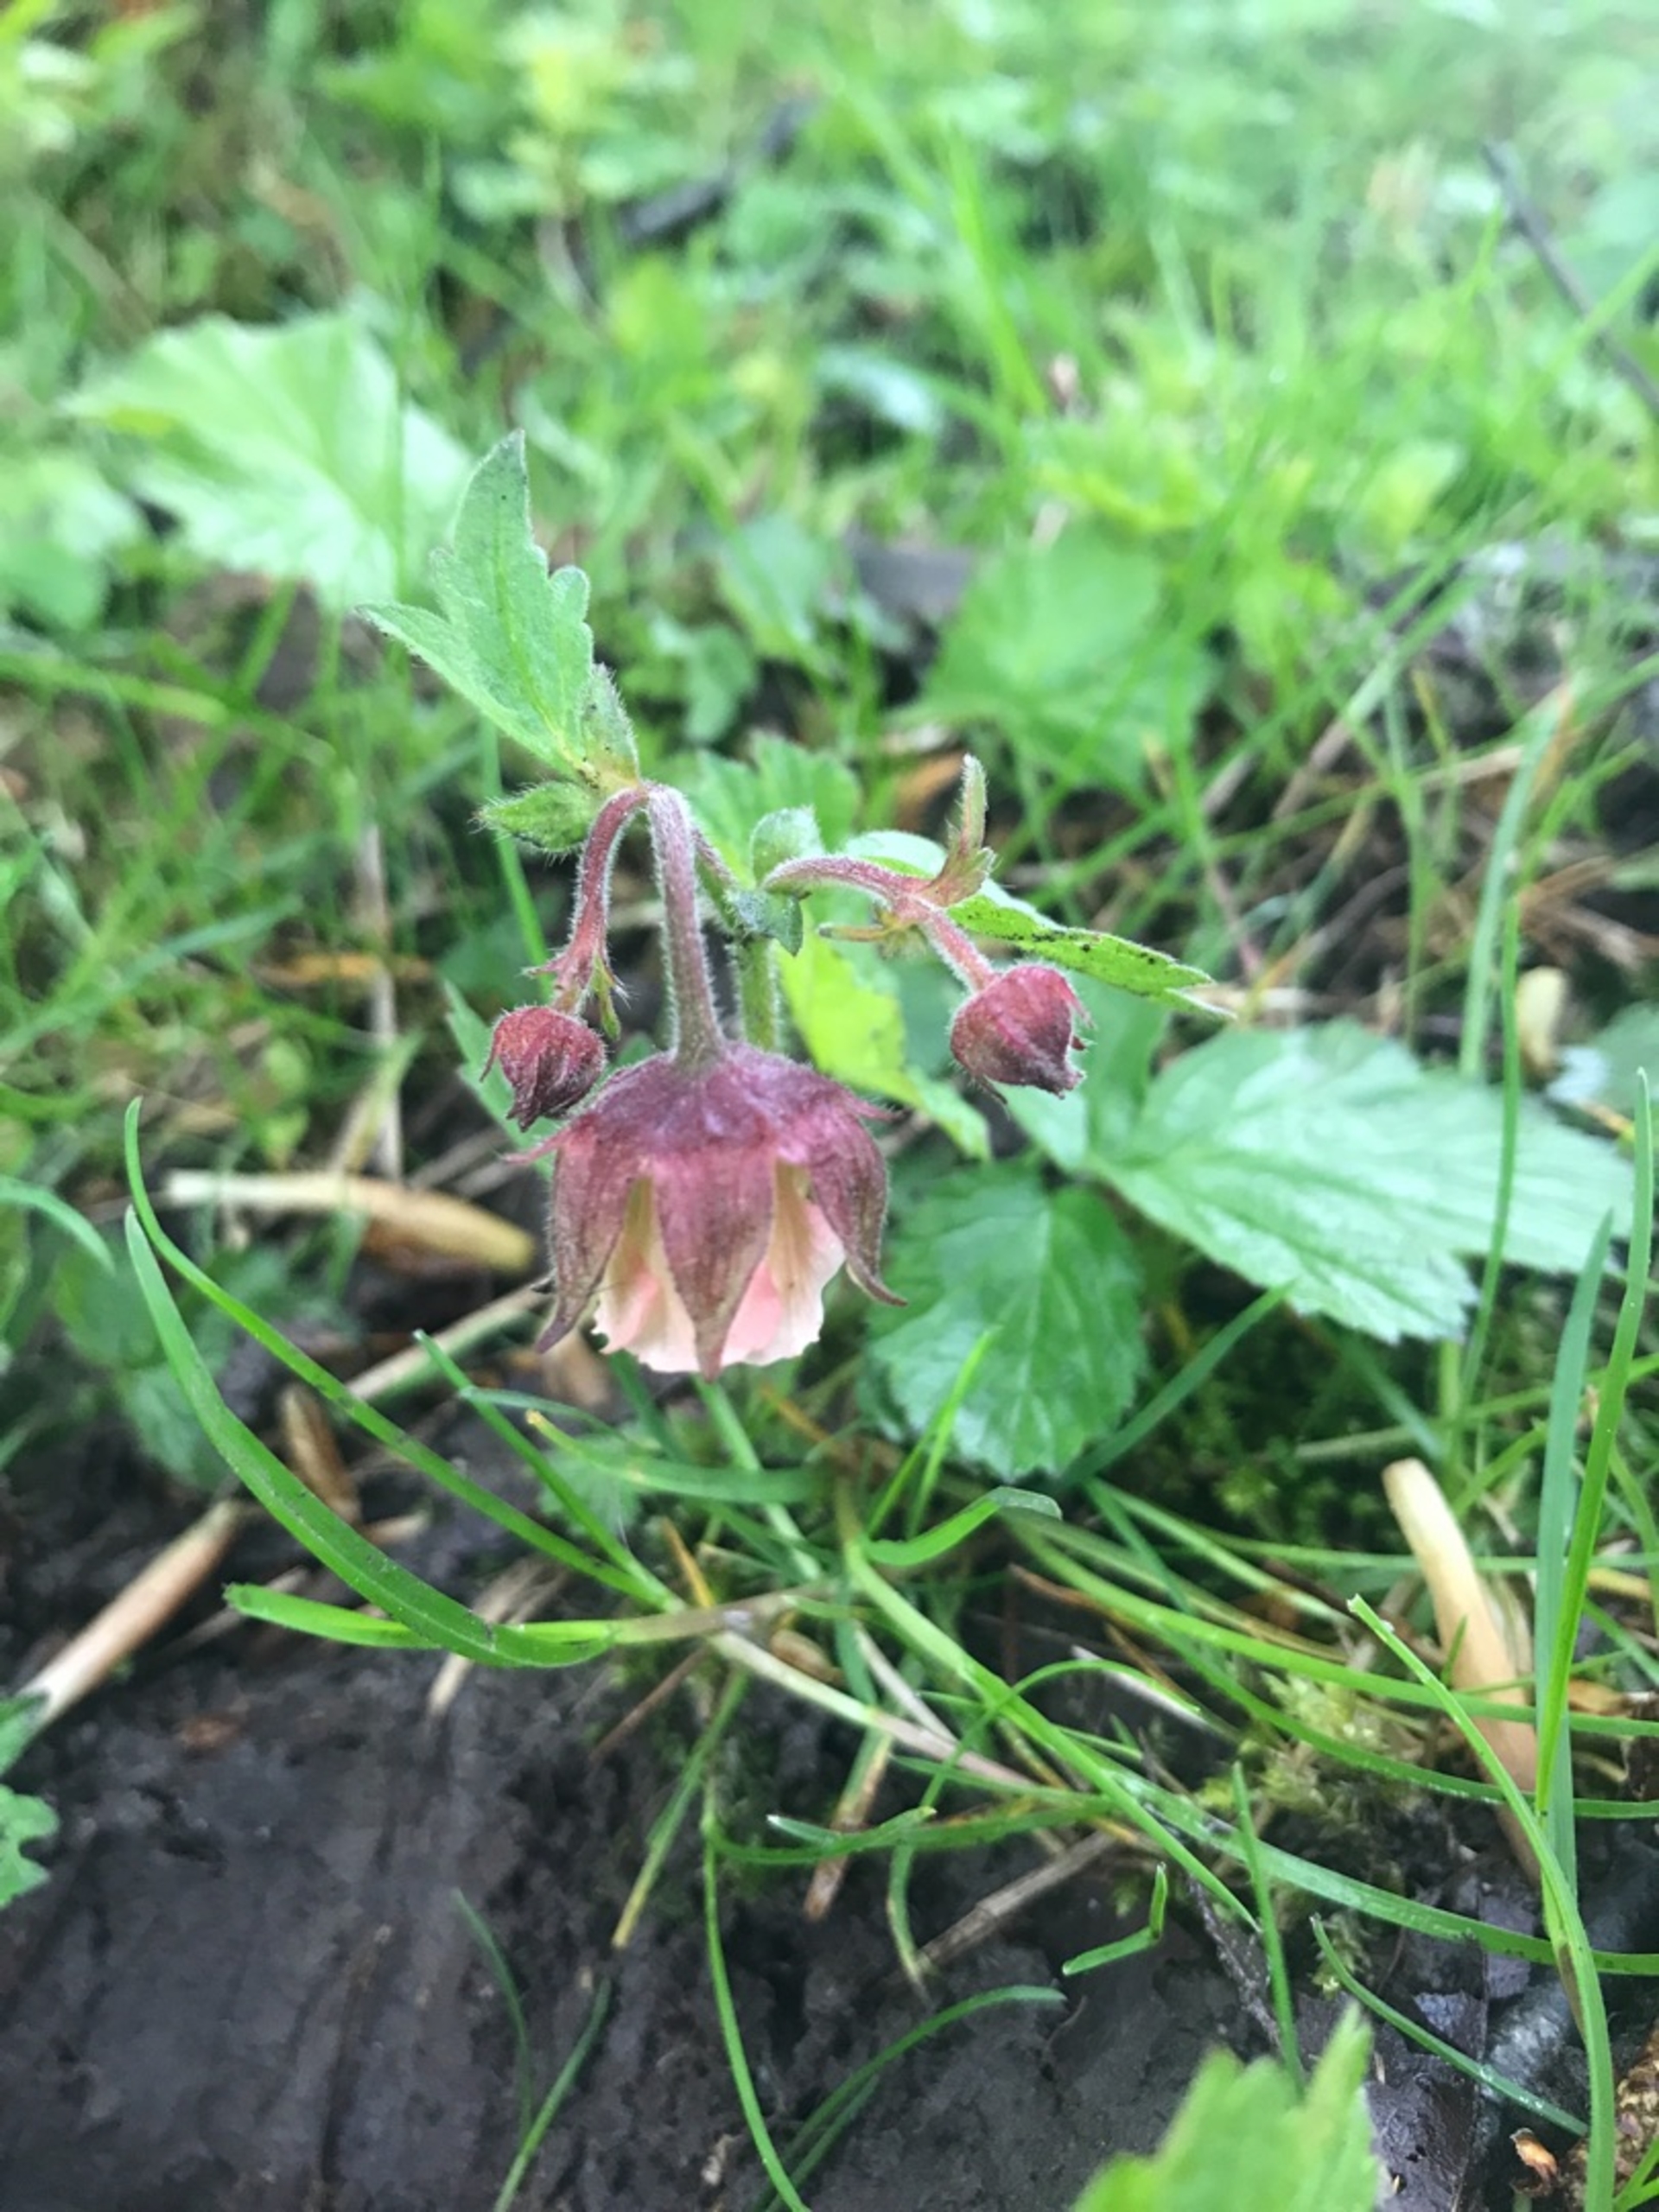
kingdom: Plantae
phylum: Tracheophyta
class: Magnoliopsida
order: Rosales
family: Rosaceae
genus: Geum
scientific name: Geum rivale
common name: Eng-nellikerod
